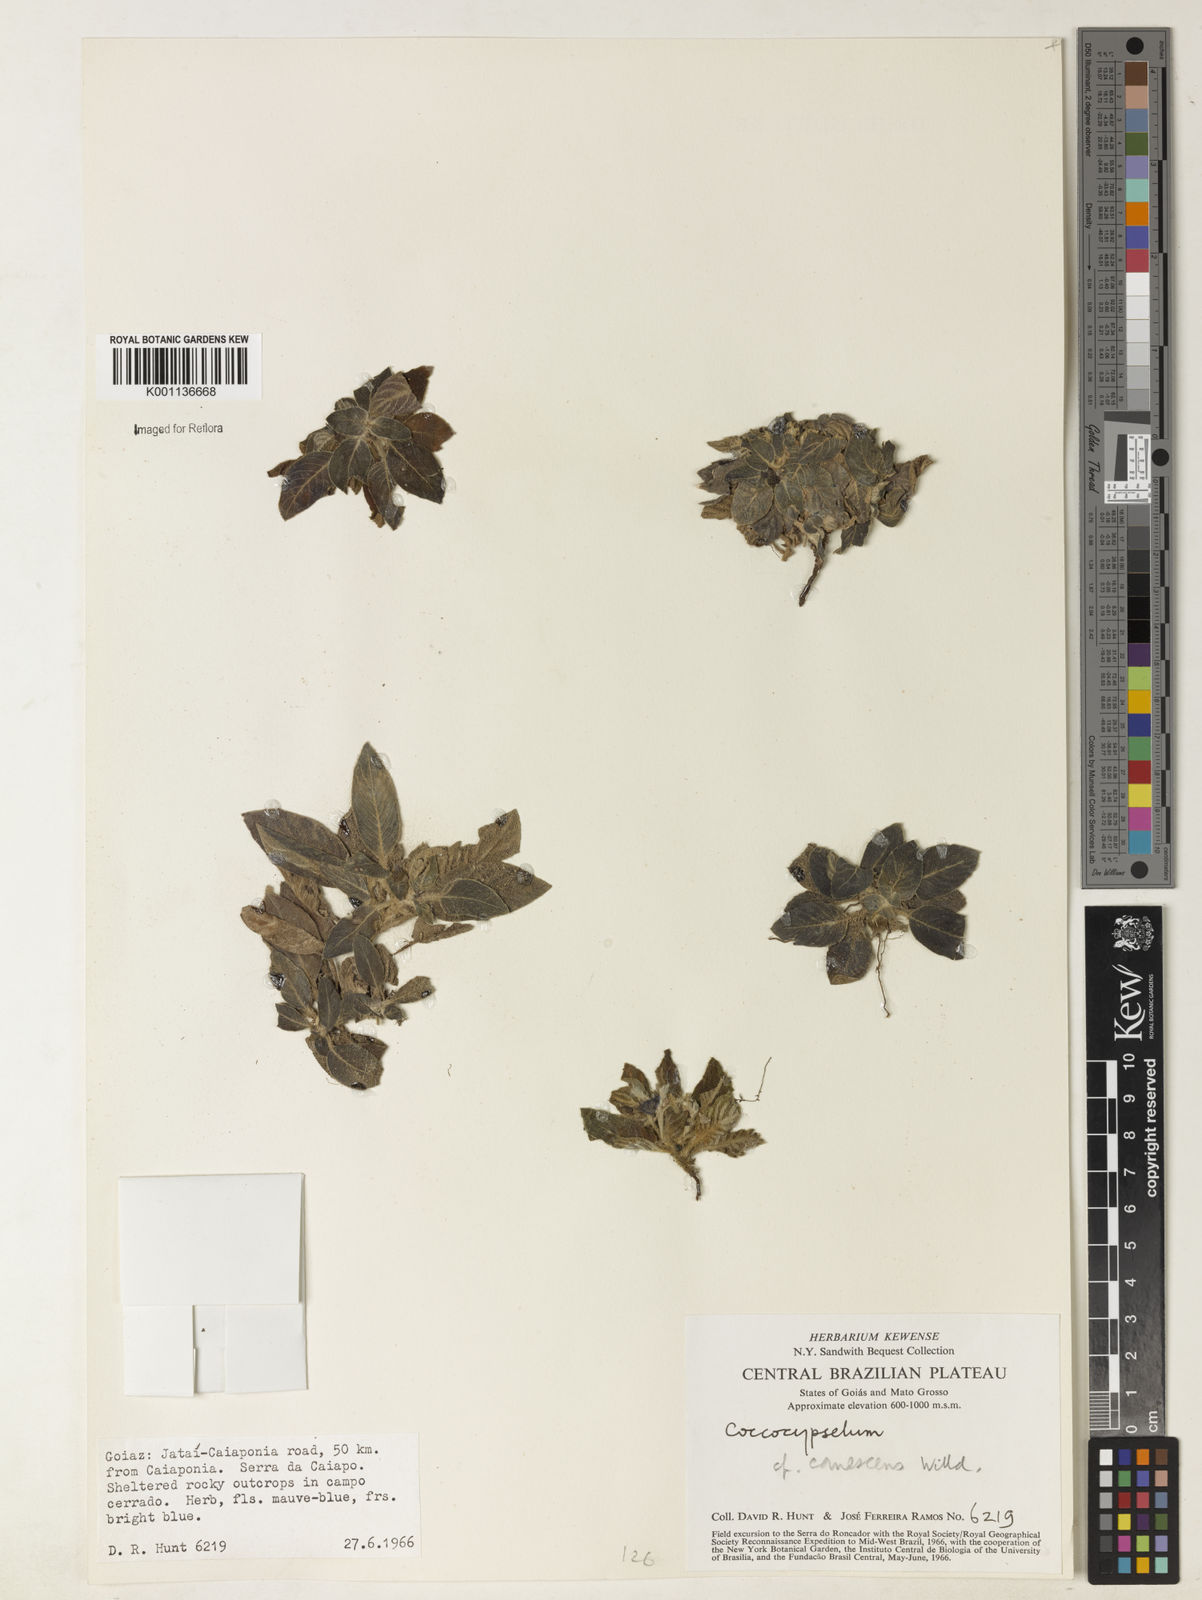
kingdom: Plantae
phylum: Tracheophyta
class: Magnoliopsida
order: Gentianales
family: Rubiaceae
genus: Coccocypselum
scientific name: Coccocypselum lanceolatum
